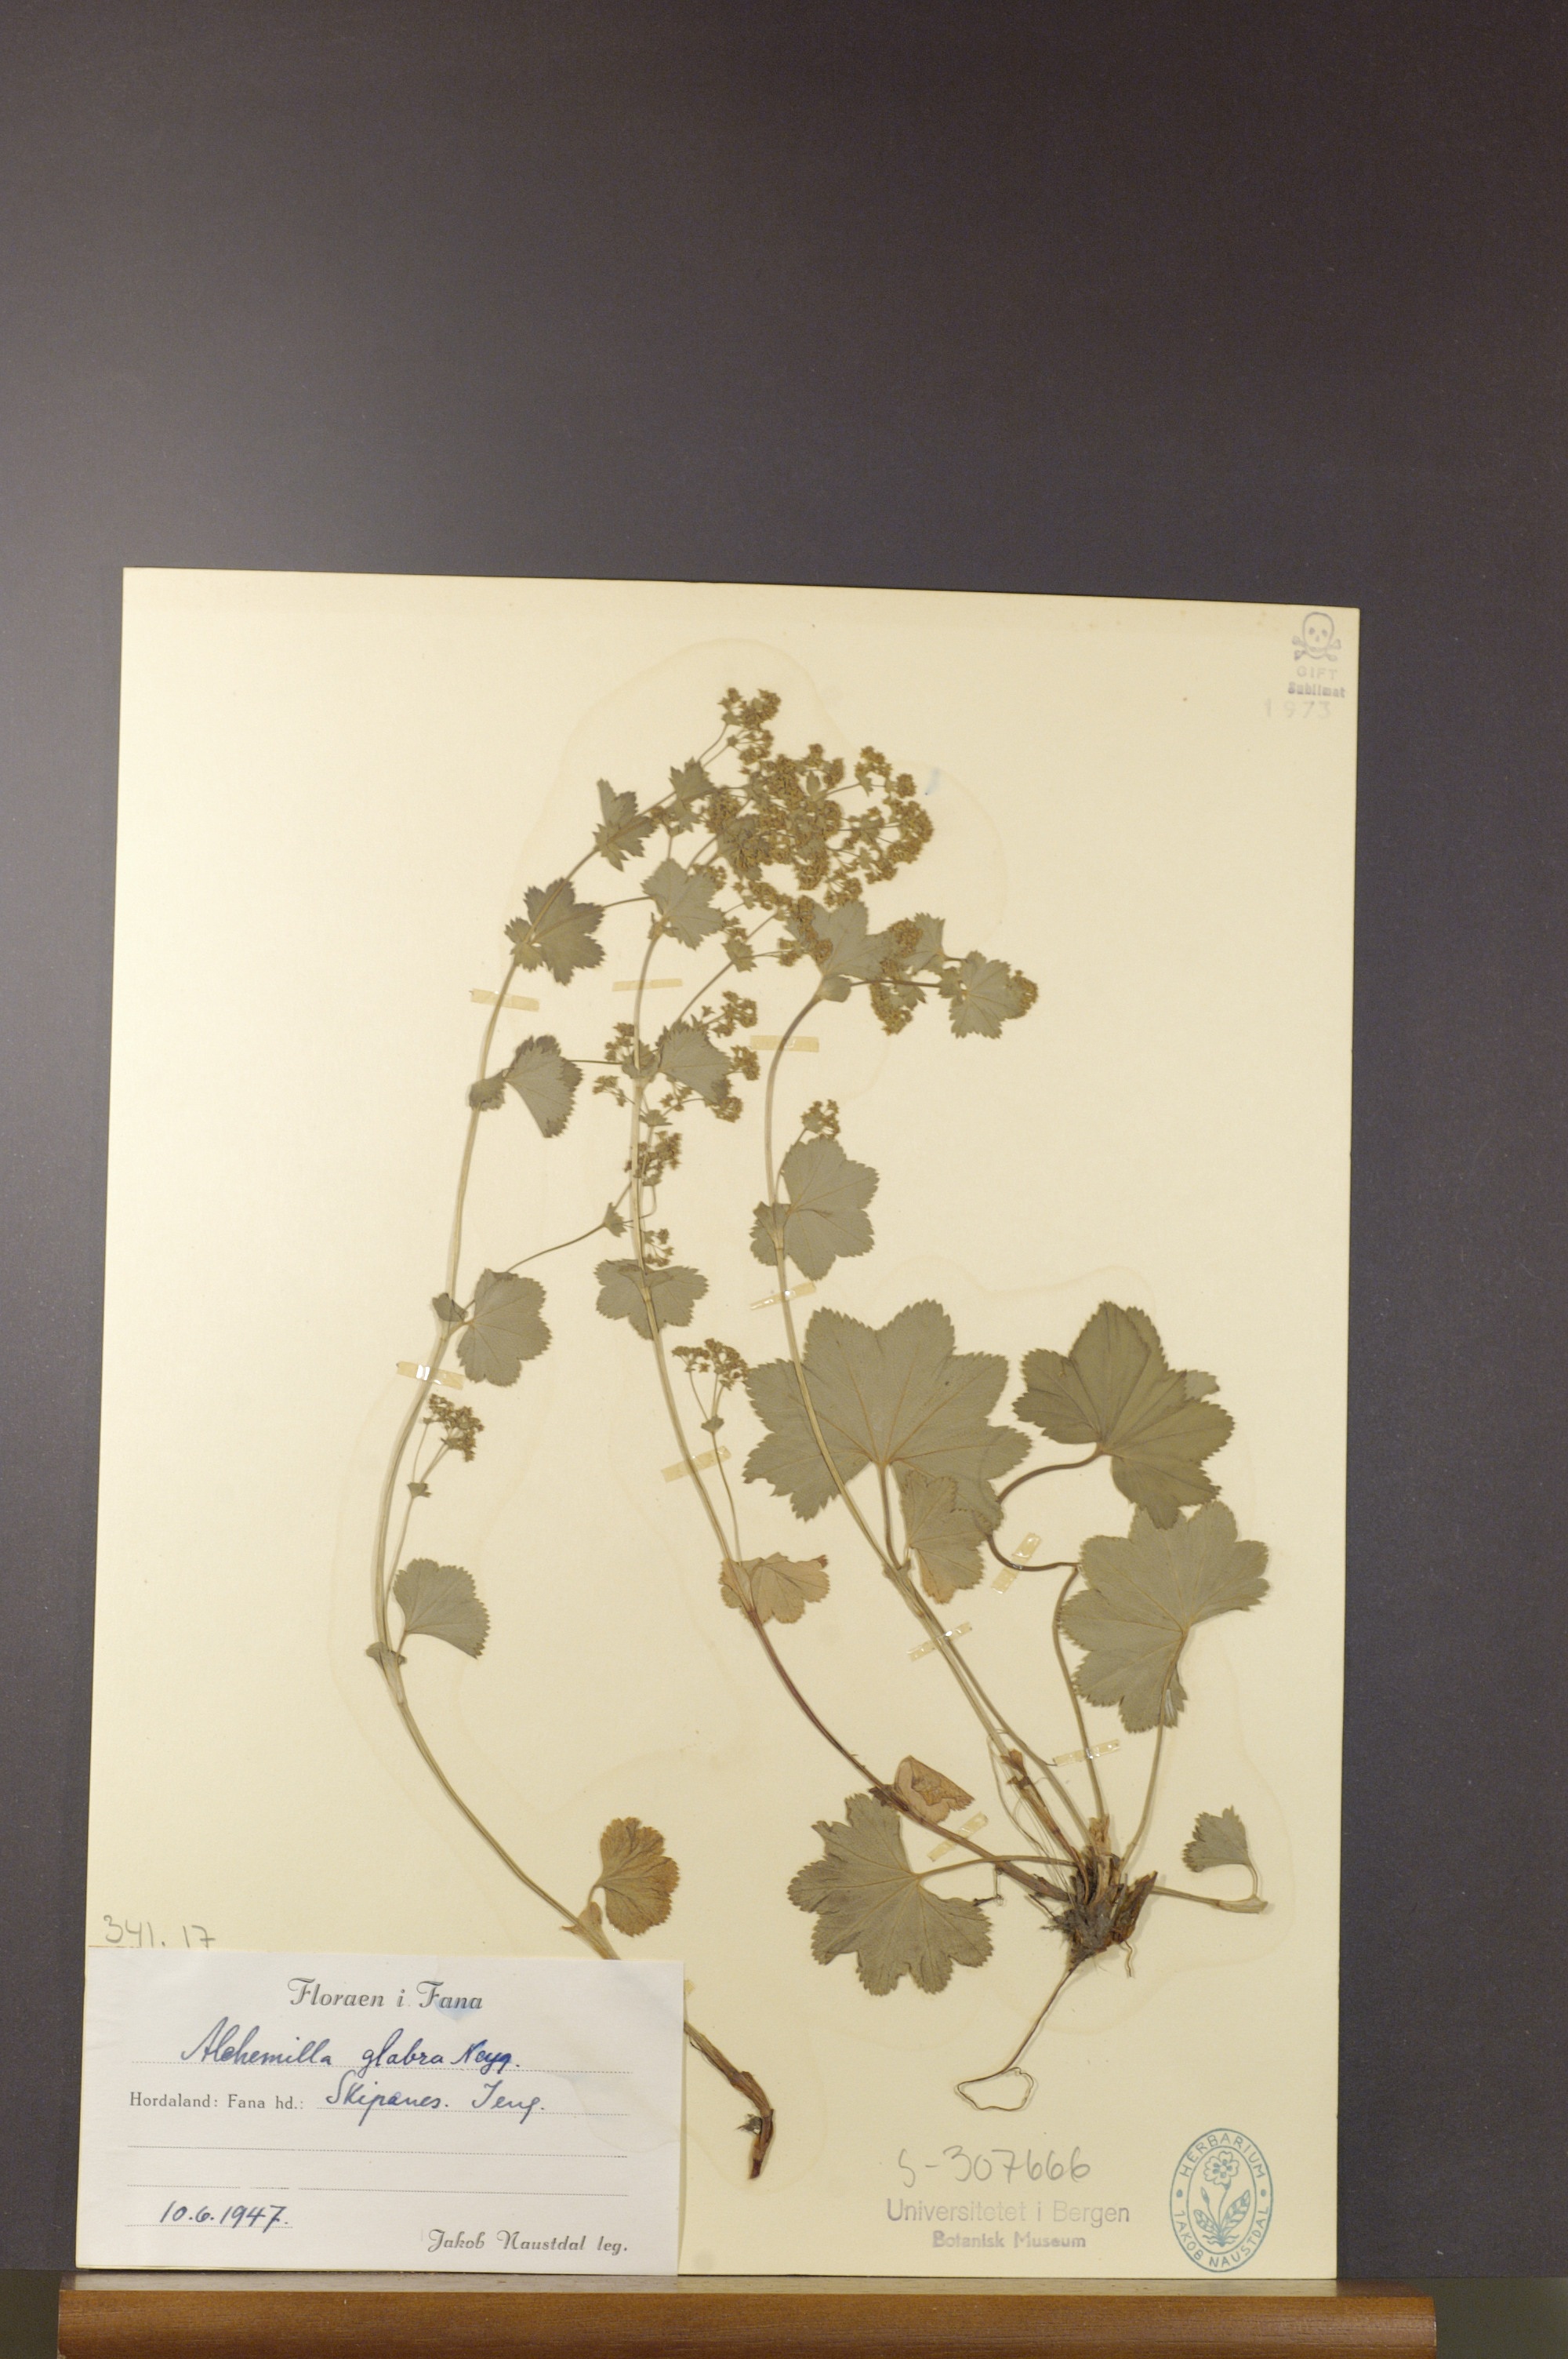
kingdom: Plantae
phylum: Tracheophyta
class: Magnoliopsida
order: Rosales
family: Rosaceae
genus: Alchemilla
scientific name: Alchemilla glabra
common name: Smooth lady's-mantle
